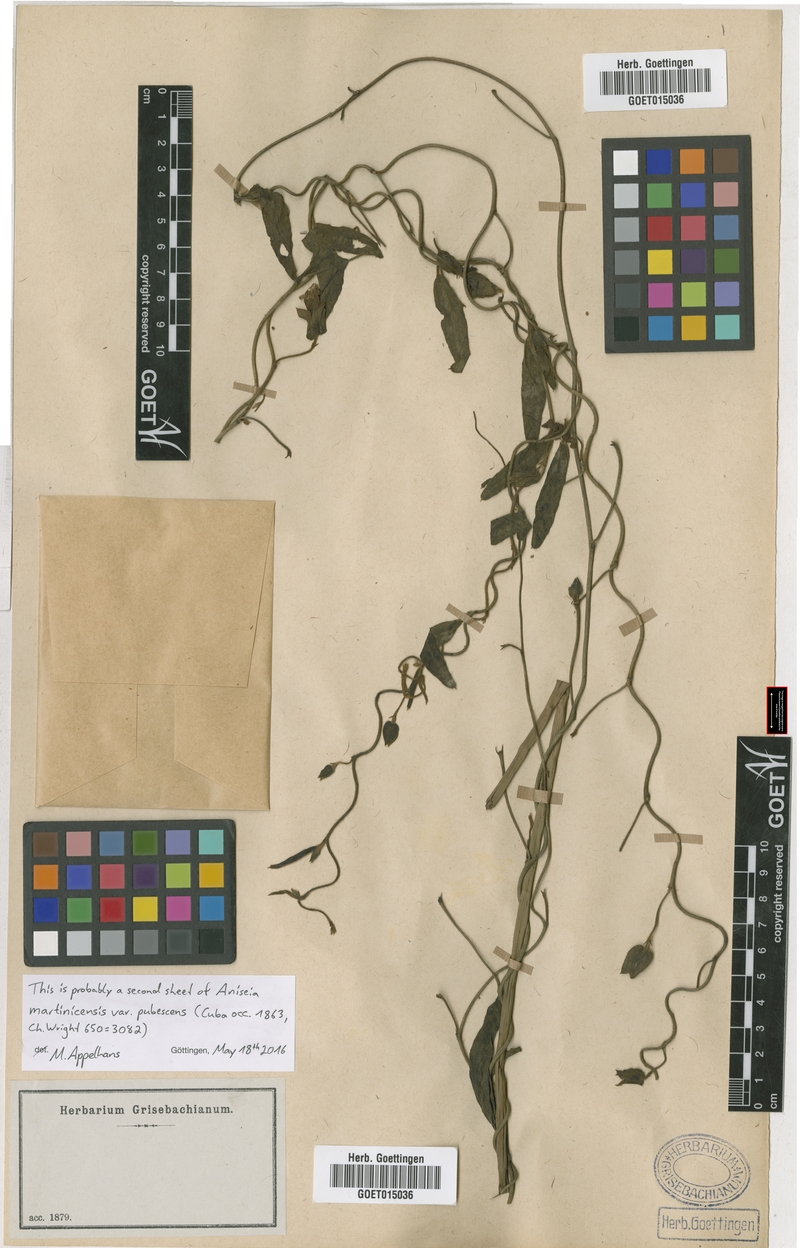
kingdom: Plantae
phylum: Tracheophyta
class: Magnoliopsida
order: Solanales
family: Convolvulaceae
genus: Aniseia
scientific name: Aniseia martinicensis
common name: Kulayadambu
